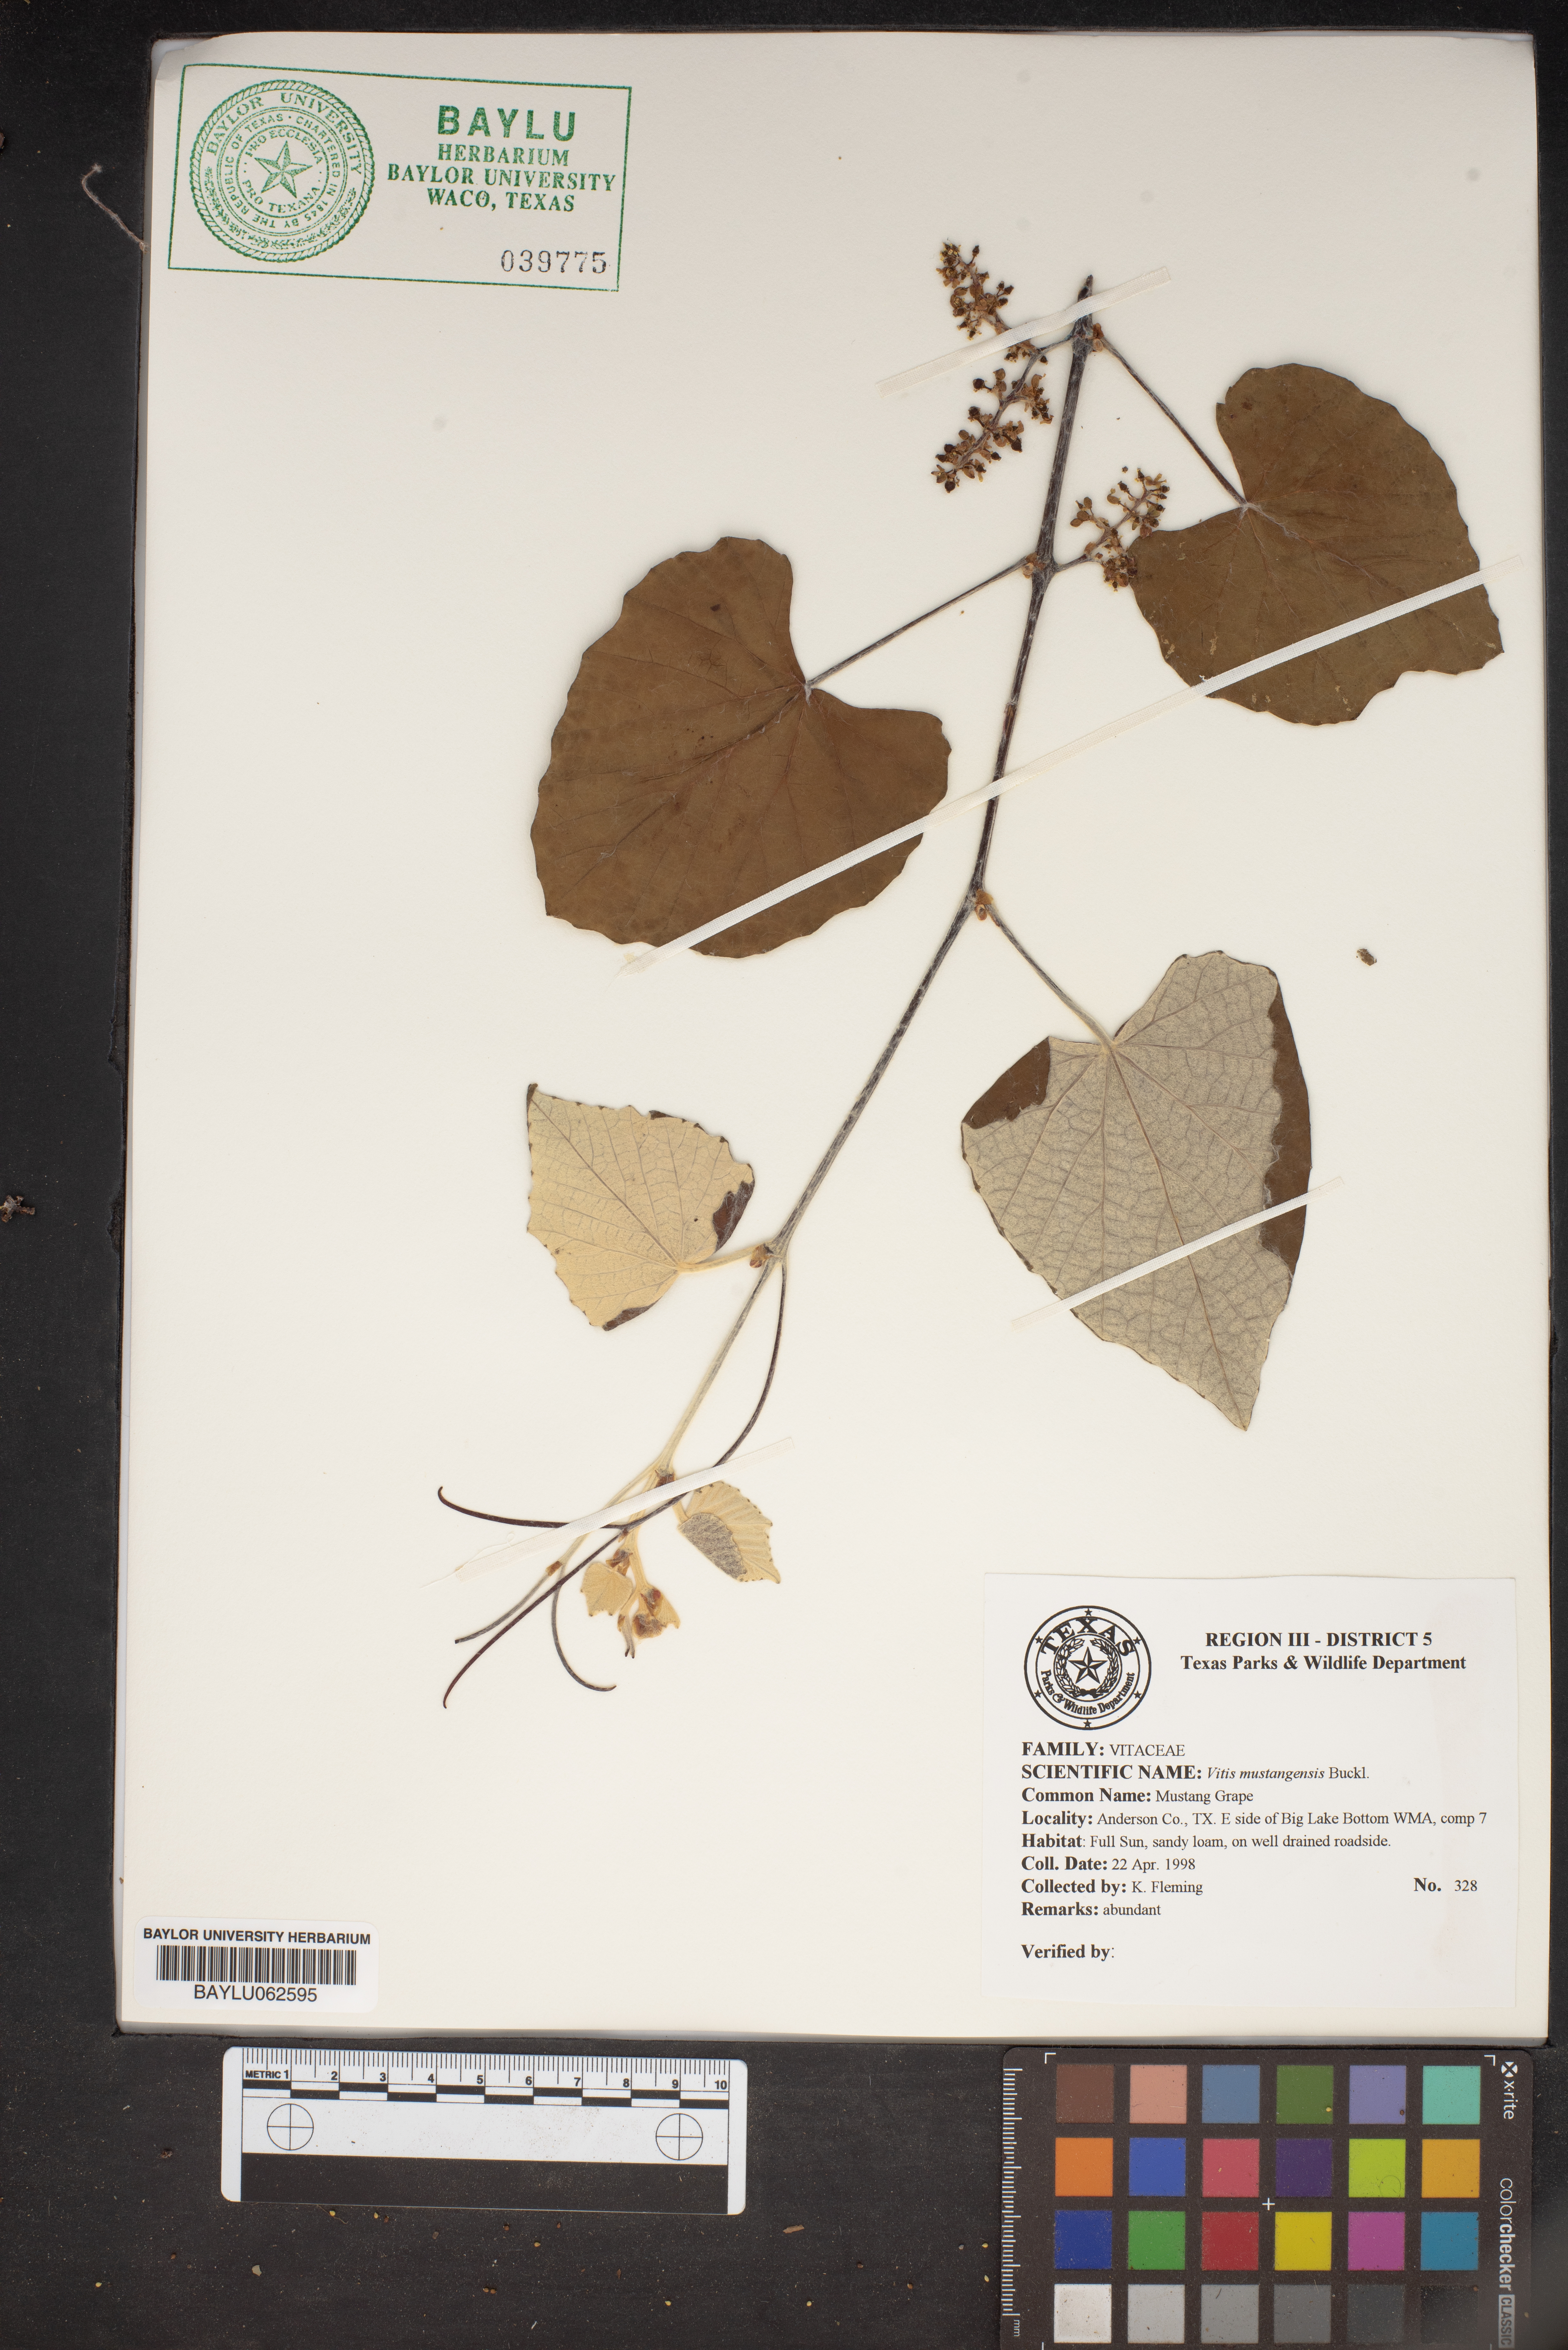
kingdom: Plantae
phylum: Tracheophyta
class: Magnoliopsida
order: Vitales
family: Vitaceae
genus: Vitis
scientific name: Vitis mustangensis
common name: Mustang grape
